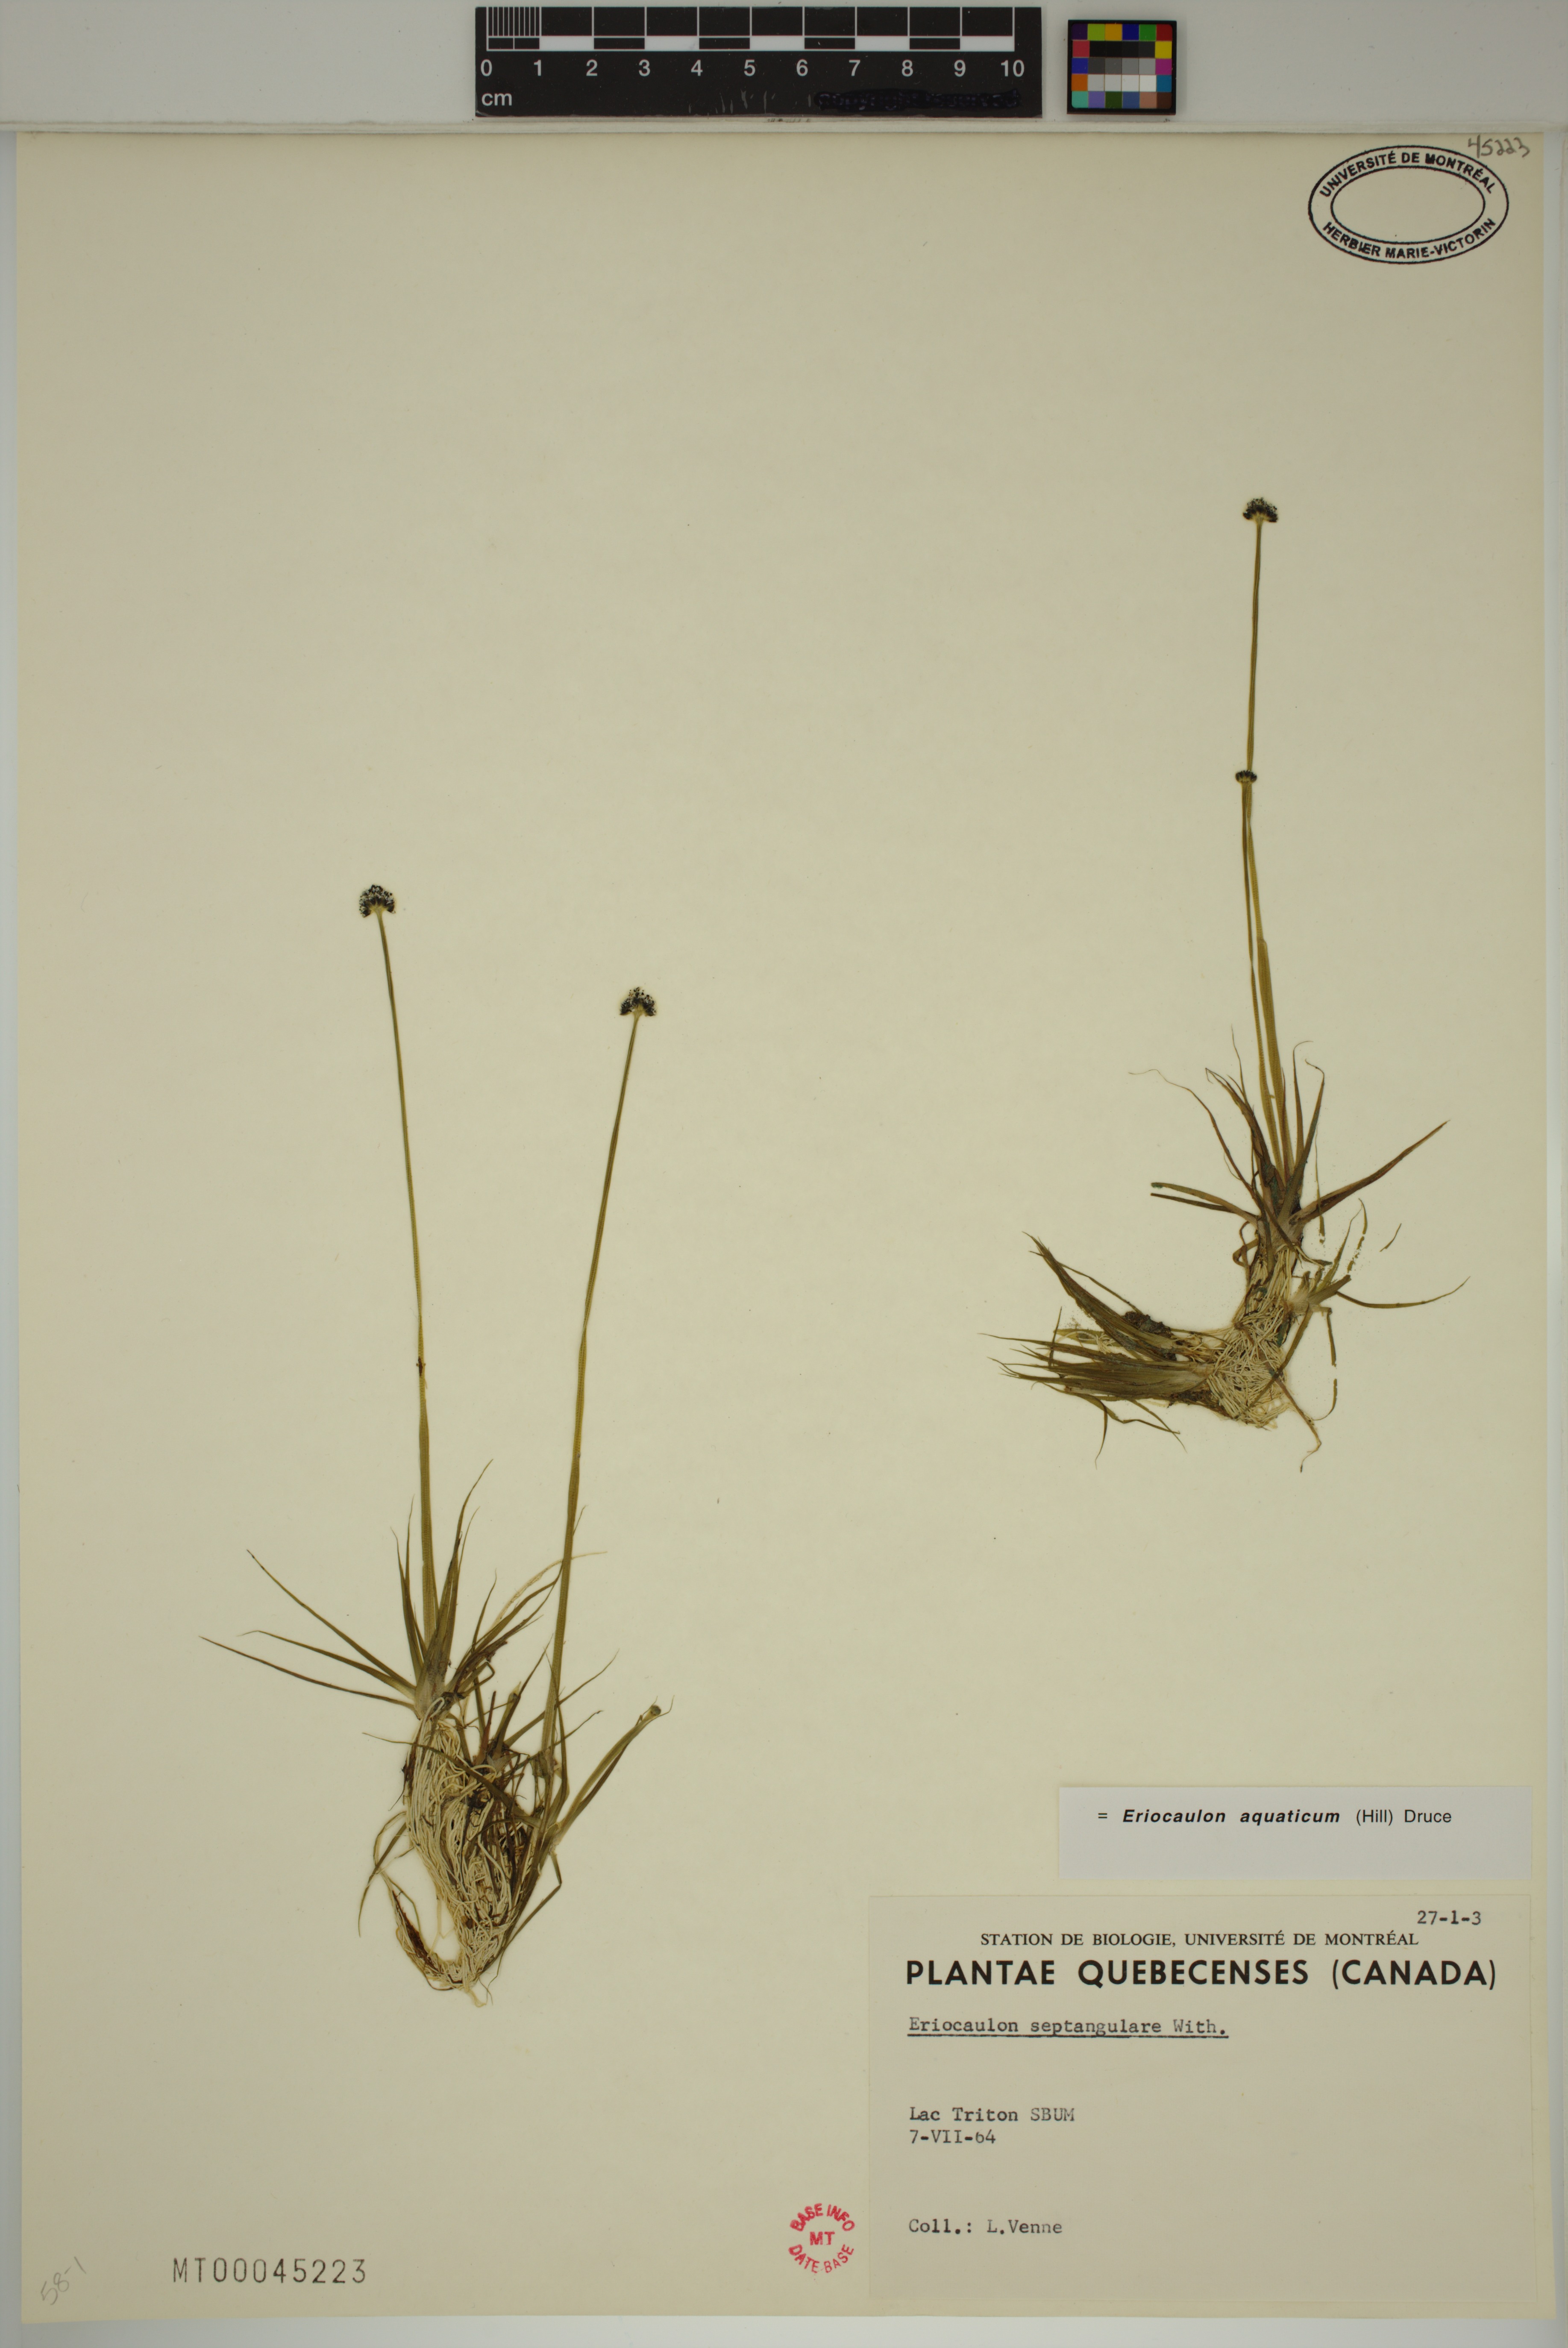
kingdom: Plantae
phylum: Tracheophyta
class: Liliopsida
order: Poales
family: Eriocaulaceae
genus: Eriocaulon
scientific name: Eriocaulon aquaticum
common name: Pipewort
